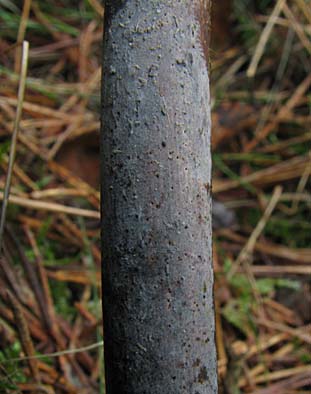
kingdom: Fungi
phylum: Basidiomycota
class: Agaricomycetes
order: Cantharellales
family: Ceratobasidiaceae
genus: Ceratobasidium
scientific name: Ceratobasidium ramicola
